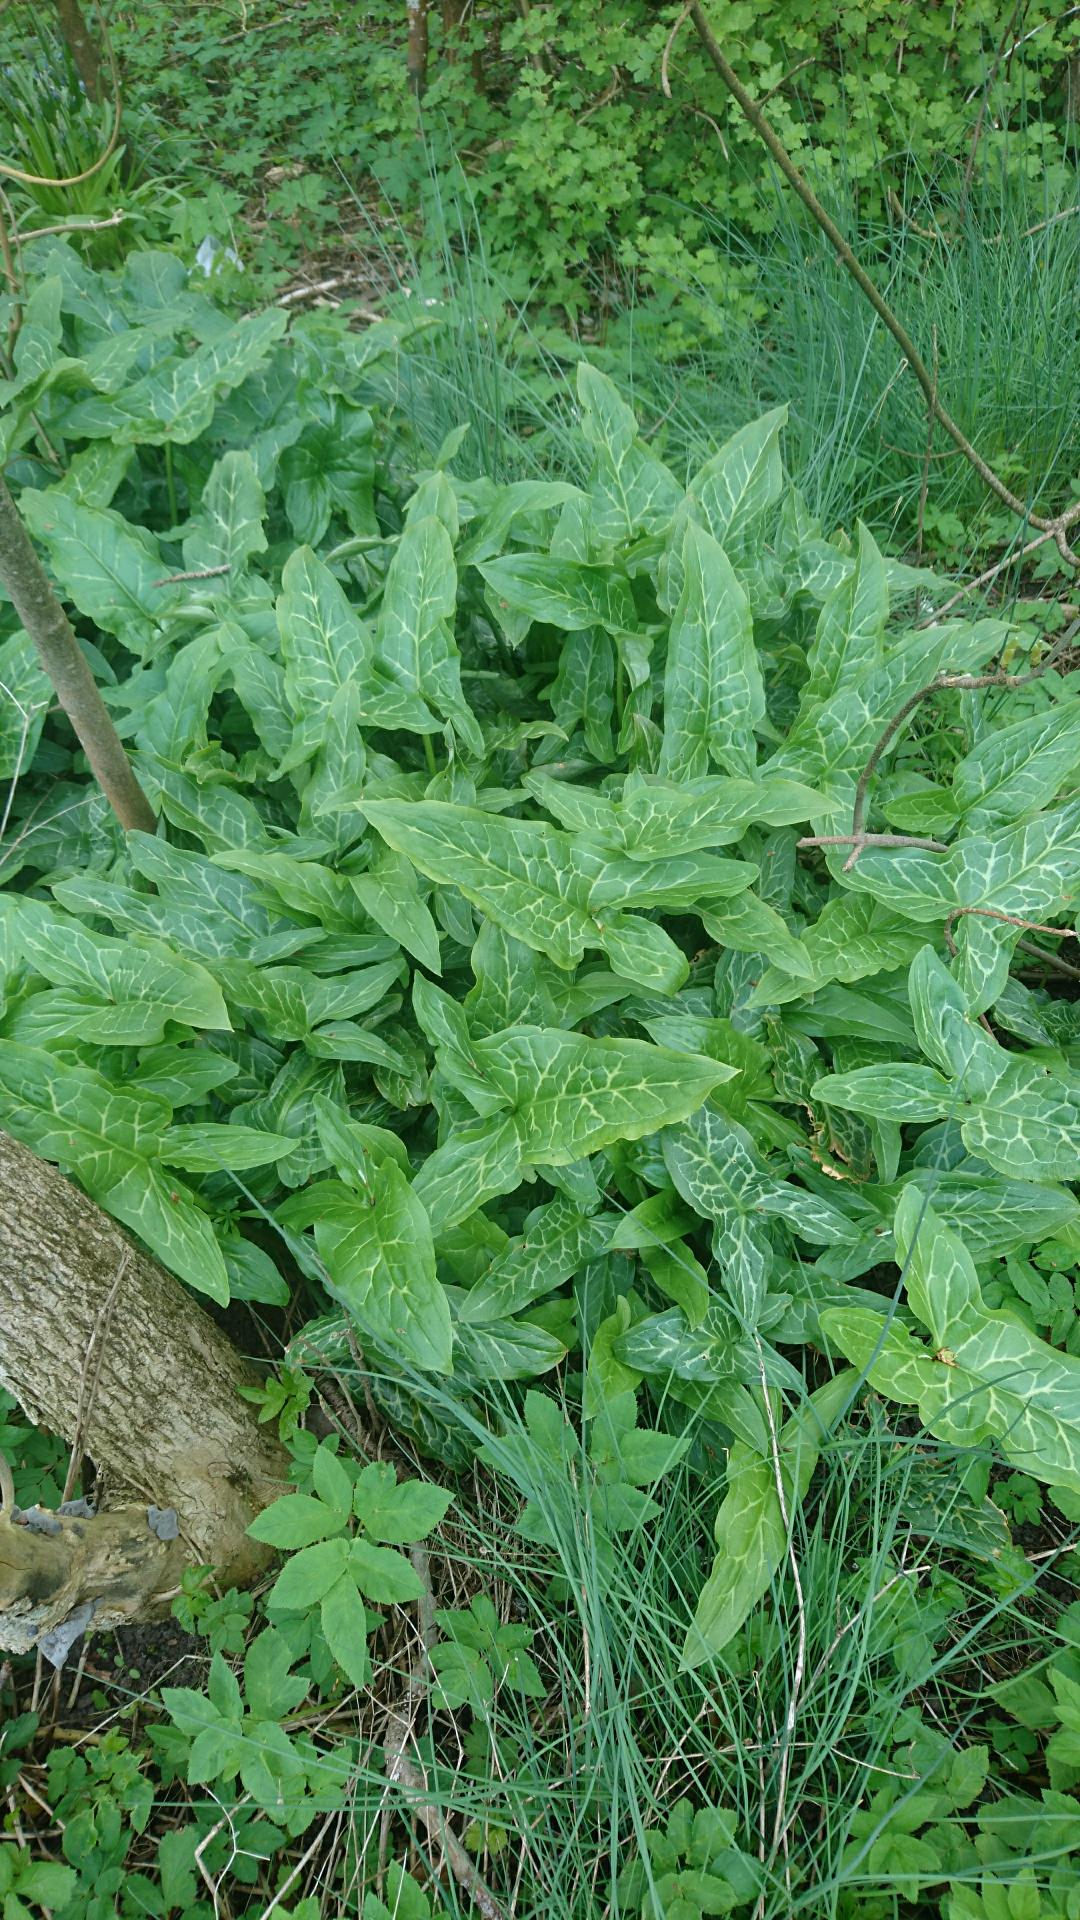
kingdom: Plantae
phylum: Tracheophyta
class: Liliopsida
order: Alismatales
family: Araceae
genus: Arum
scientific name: Arum italicum
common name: Italiensk arum
